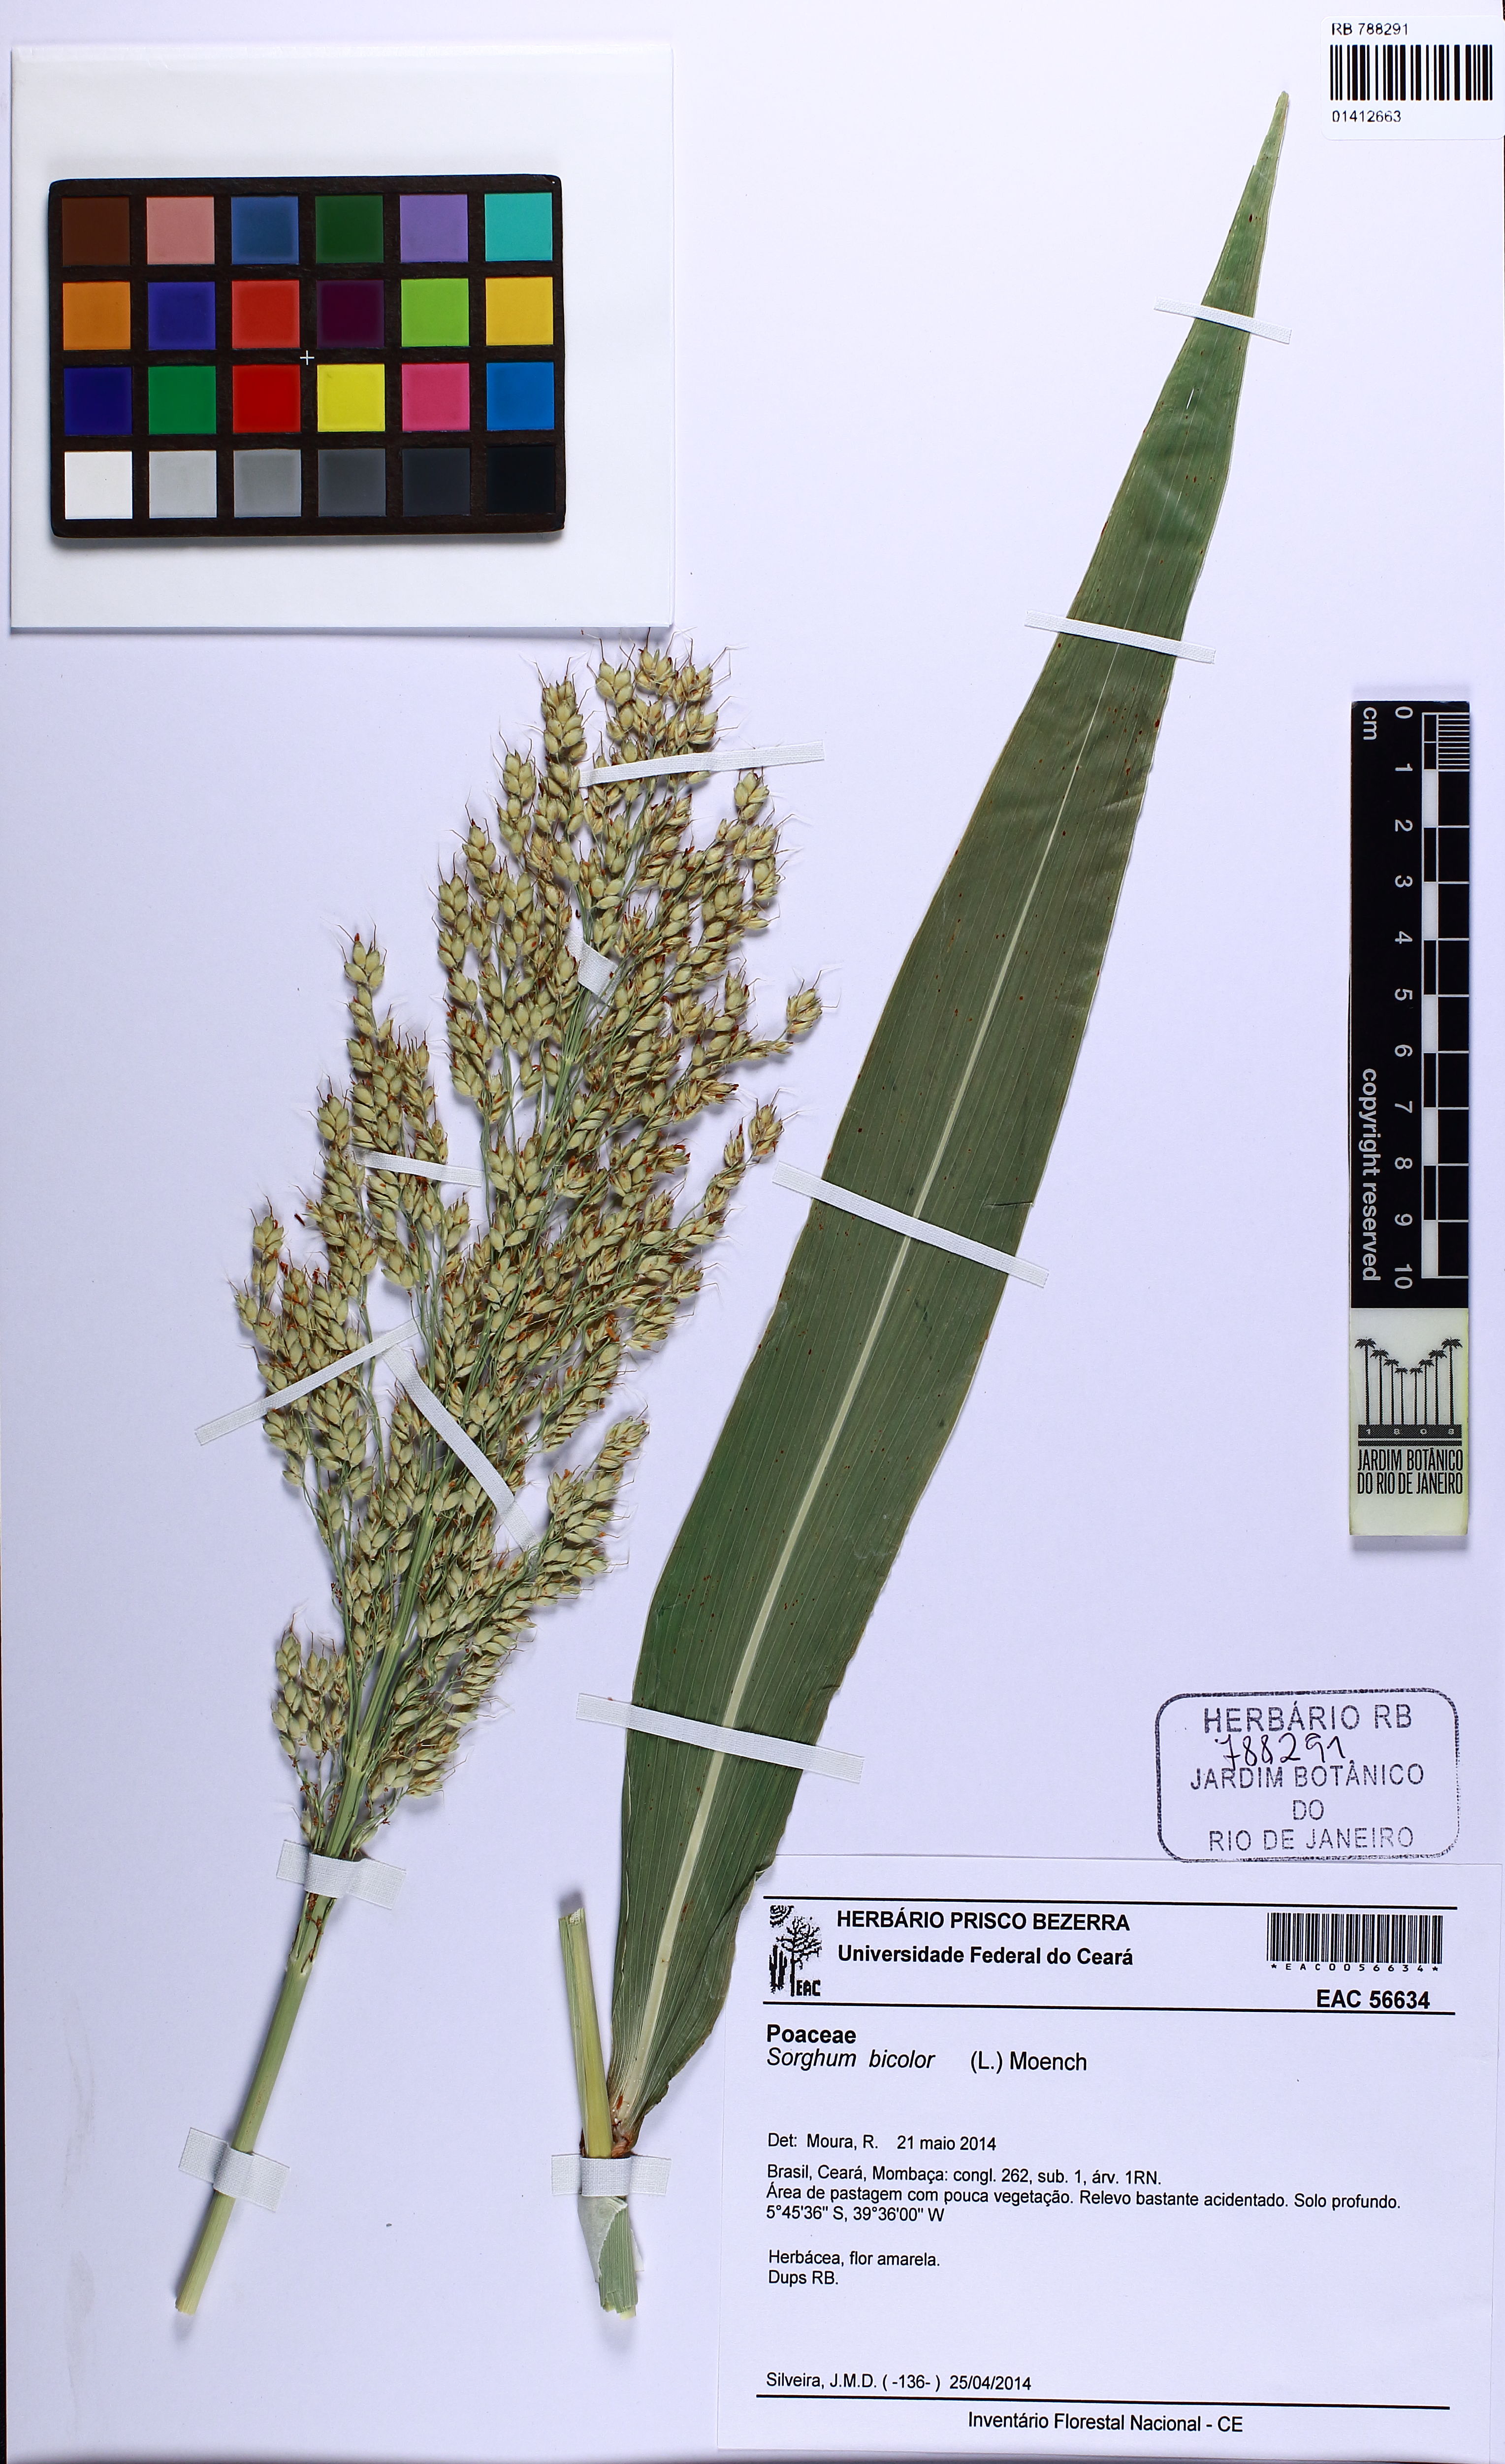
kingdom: Plantae
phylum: Tracheophyta
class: Liliopsida
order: Poales
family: Poaceae
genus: Sorghum
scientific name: Sorghum bicolor
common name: Sorghum
